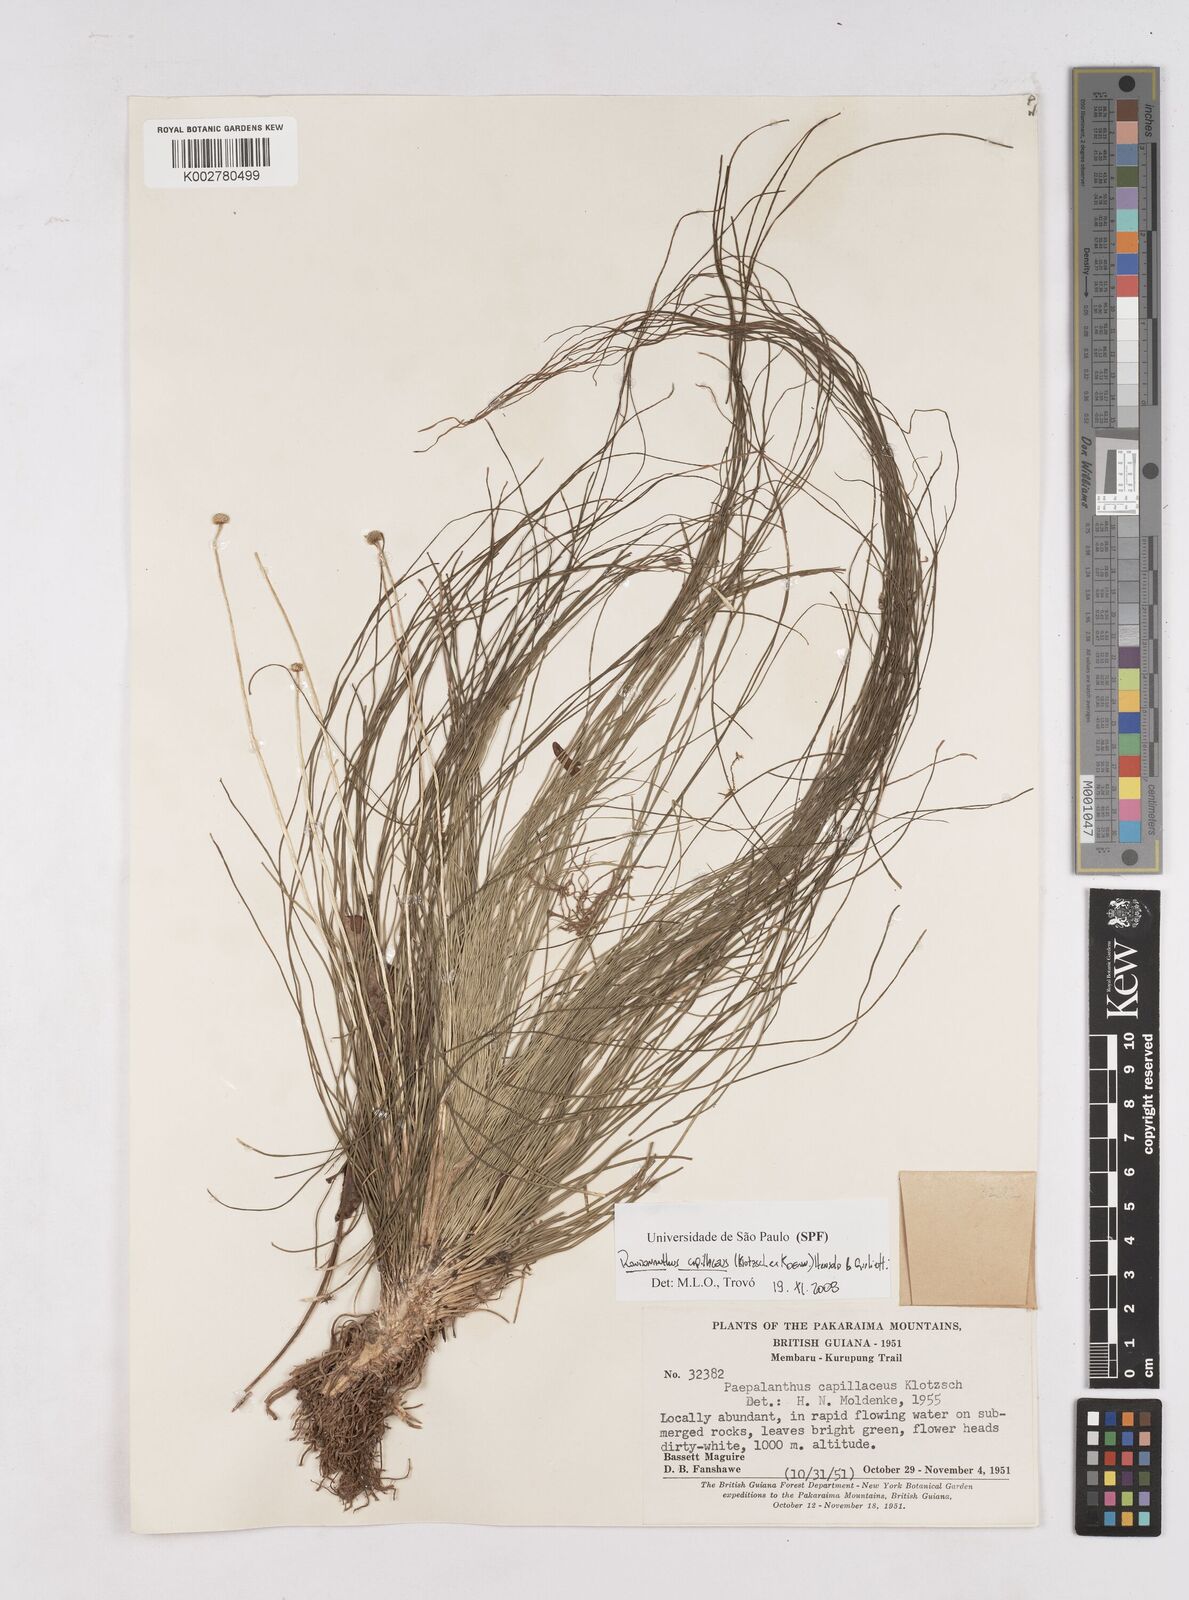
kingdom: Plantae
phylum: Tracheophyta
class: Liliopsida
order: Poales
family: Eriocaulaceae
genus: Rondonanthus
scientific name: Rondonanthus capillaceus
